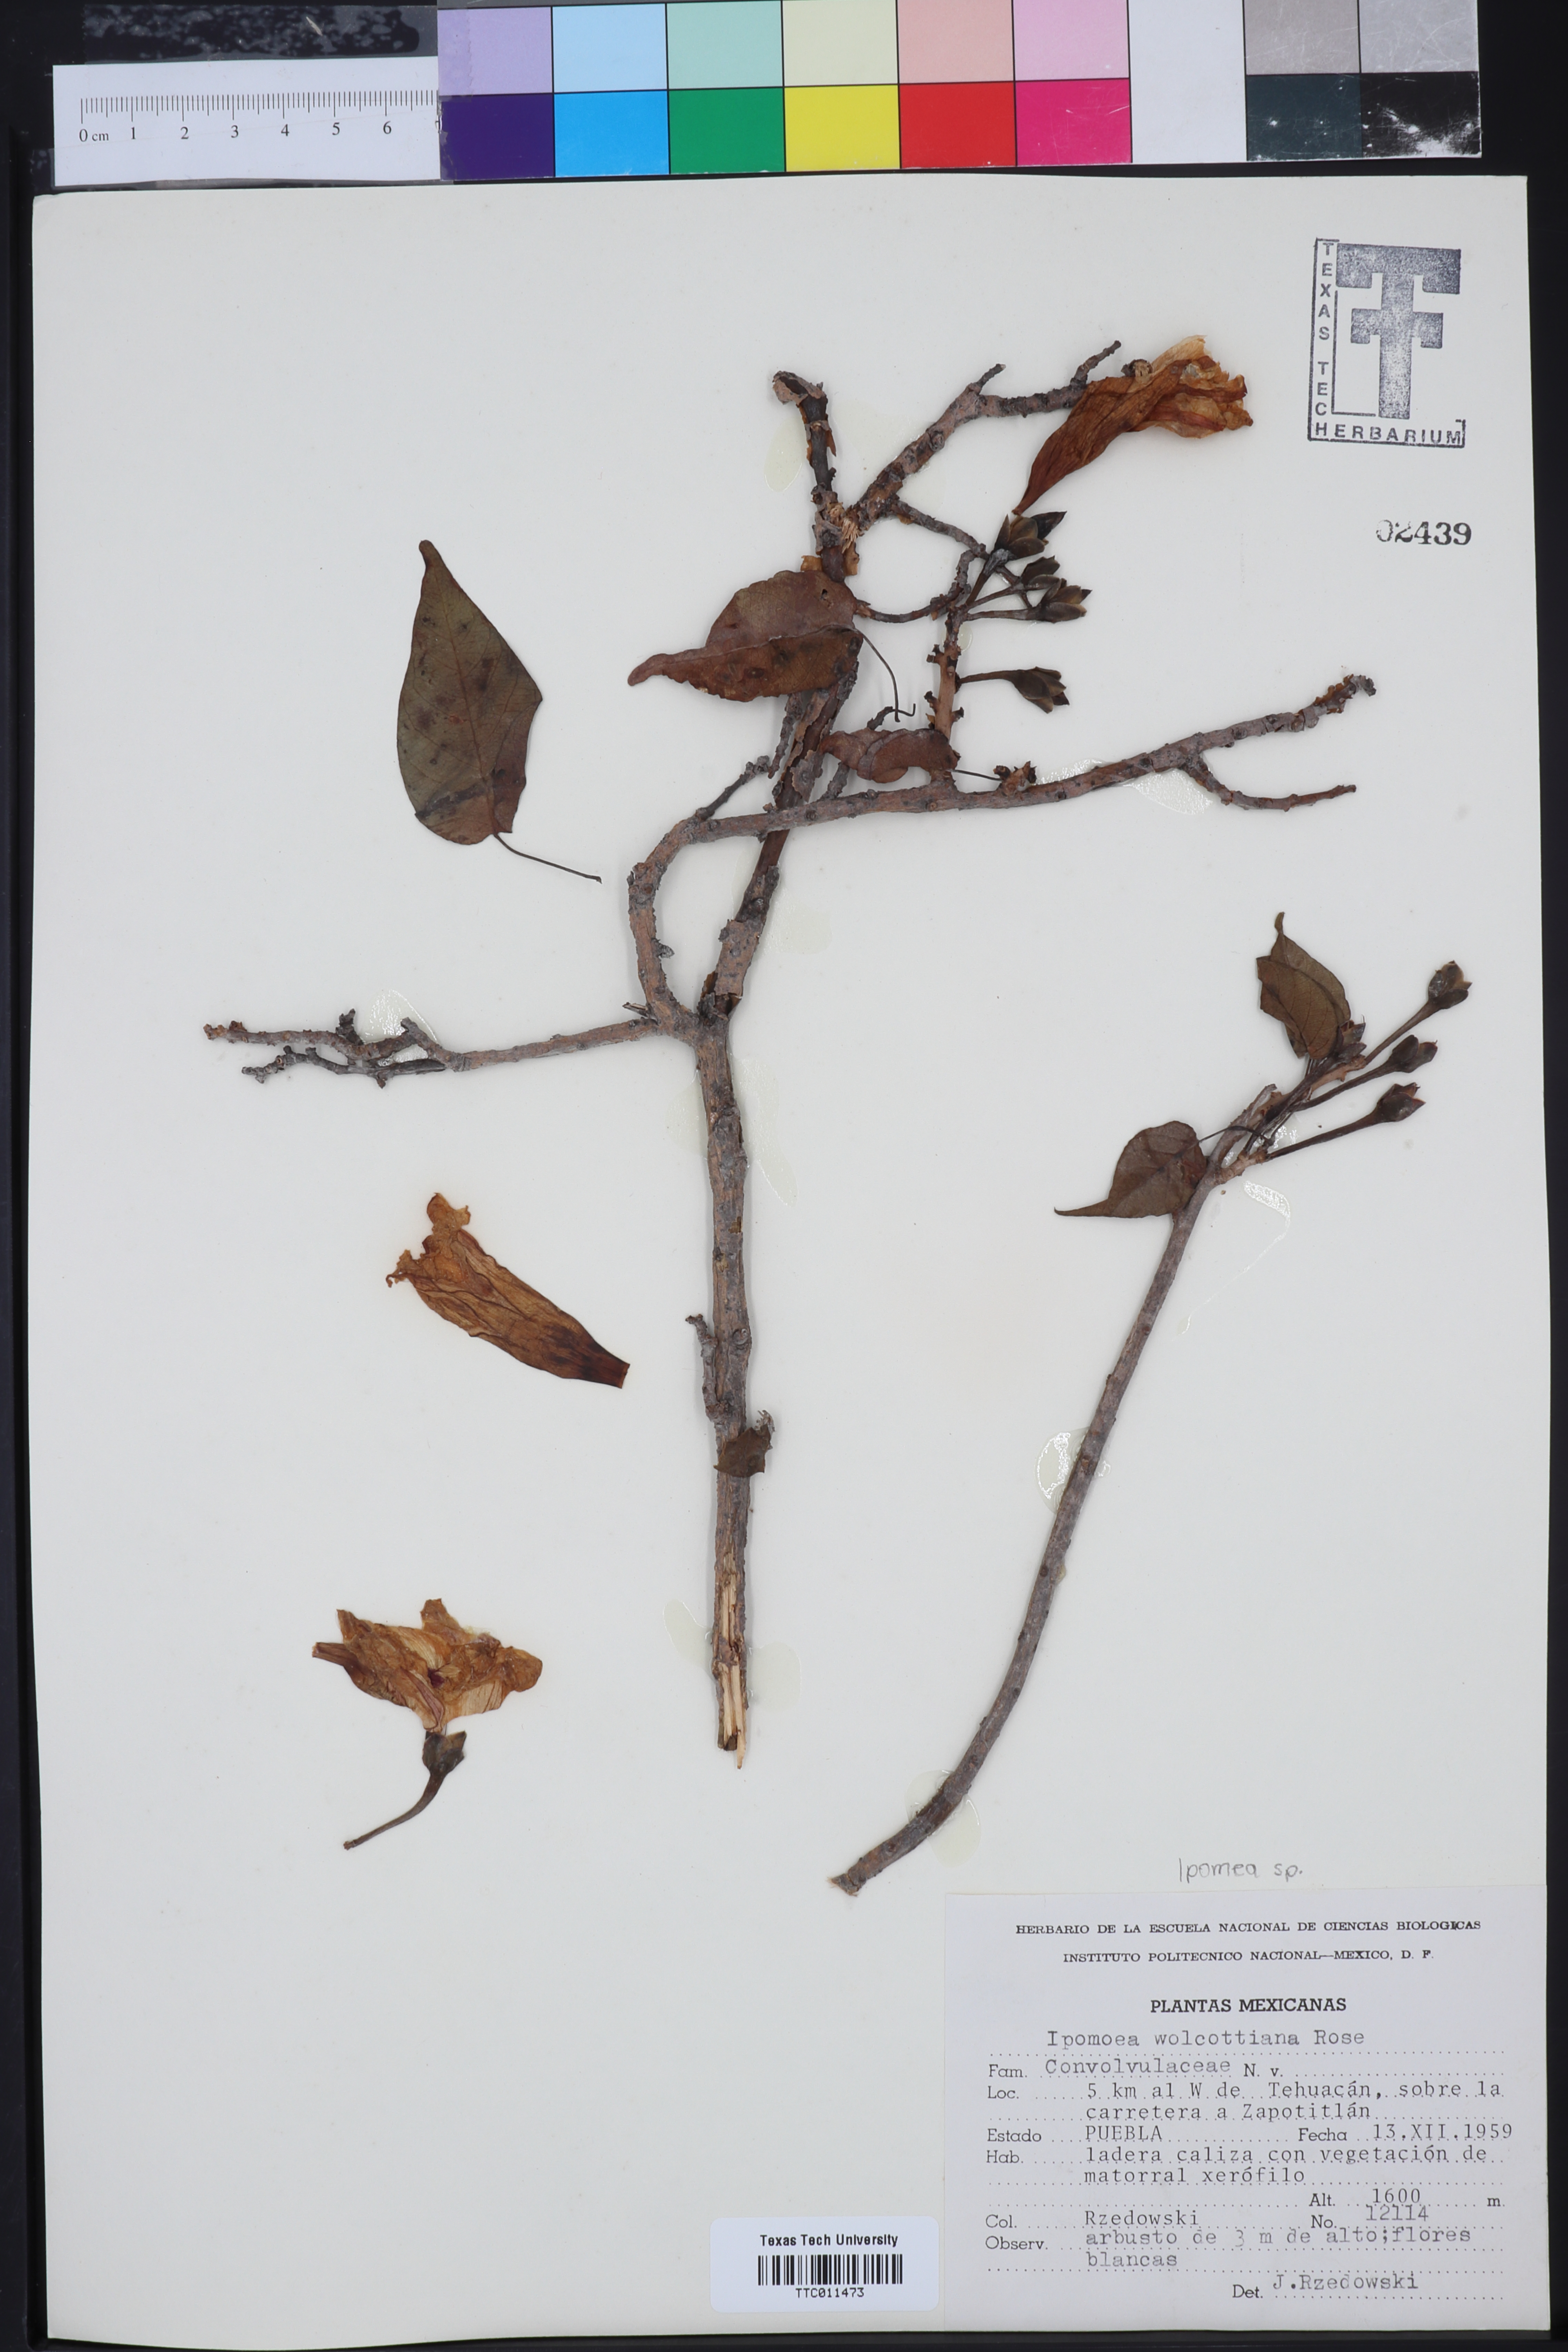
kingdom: Plantae
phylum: Tracheophyta
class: Magnoliopsida
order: Solanales
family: Convolvulaceae
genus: Ipomoea
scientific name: Ipomoea wolcottiana
